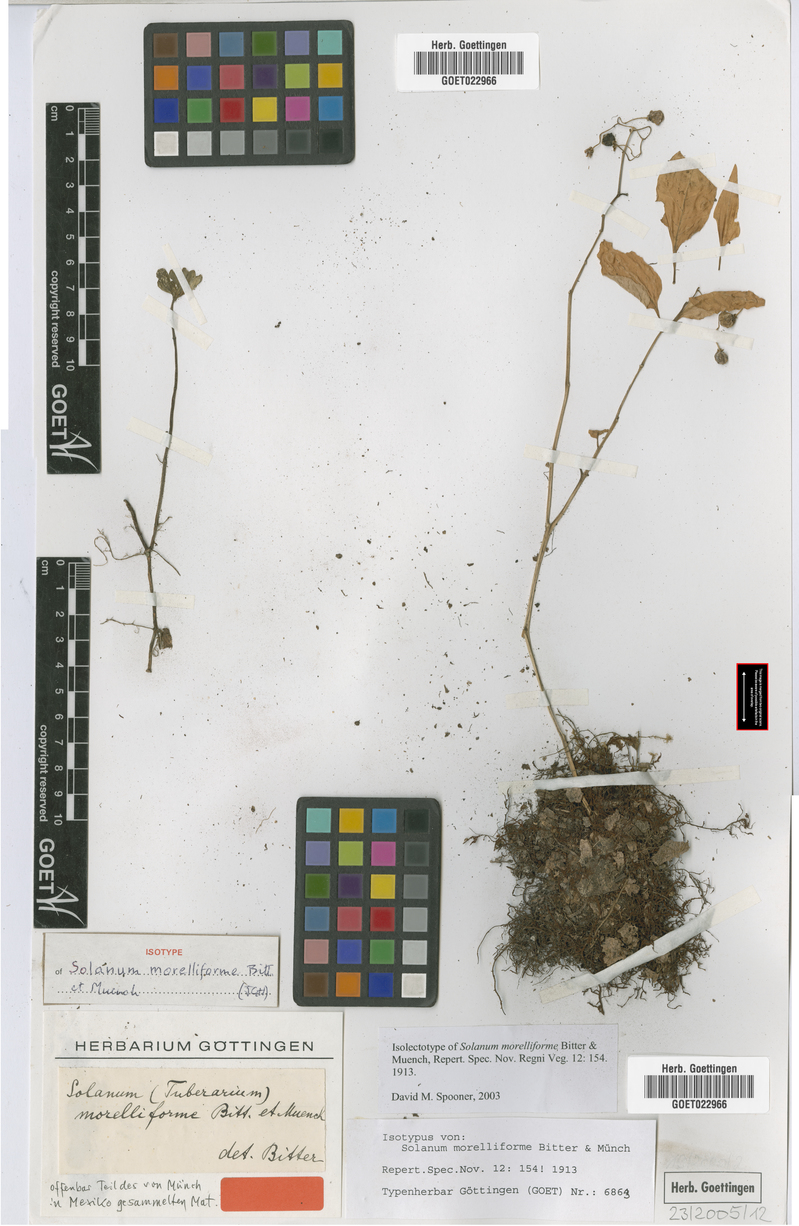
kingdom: Plantae
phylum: Tracheophyta
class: Magnoliopsida
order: Solanales
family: Solanaceae
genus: Solanum
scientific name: Solanum morelliforme
